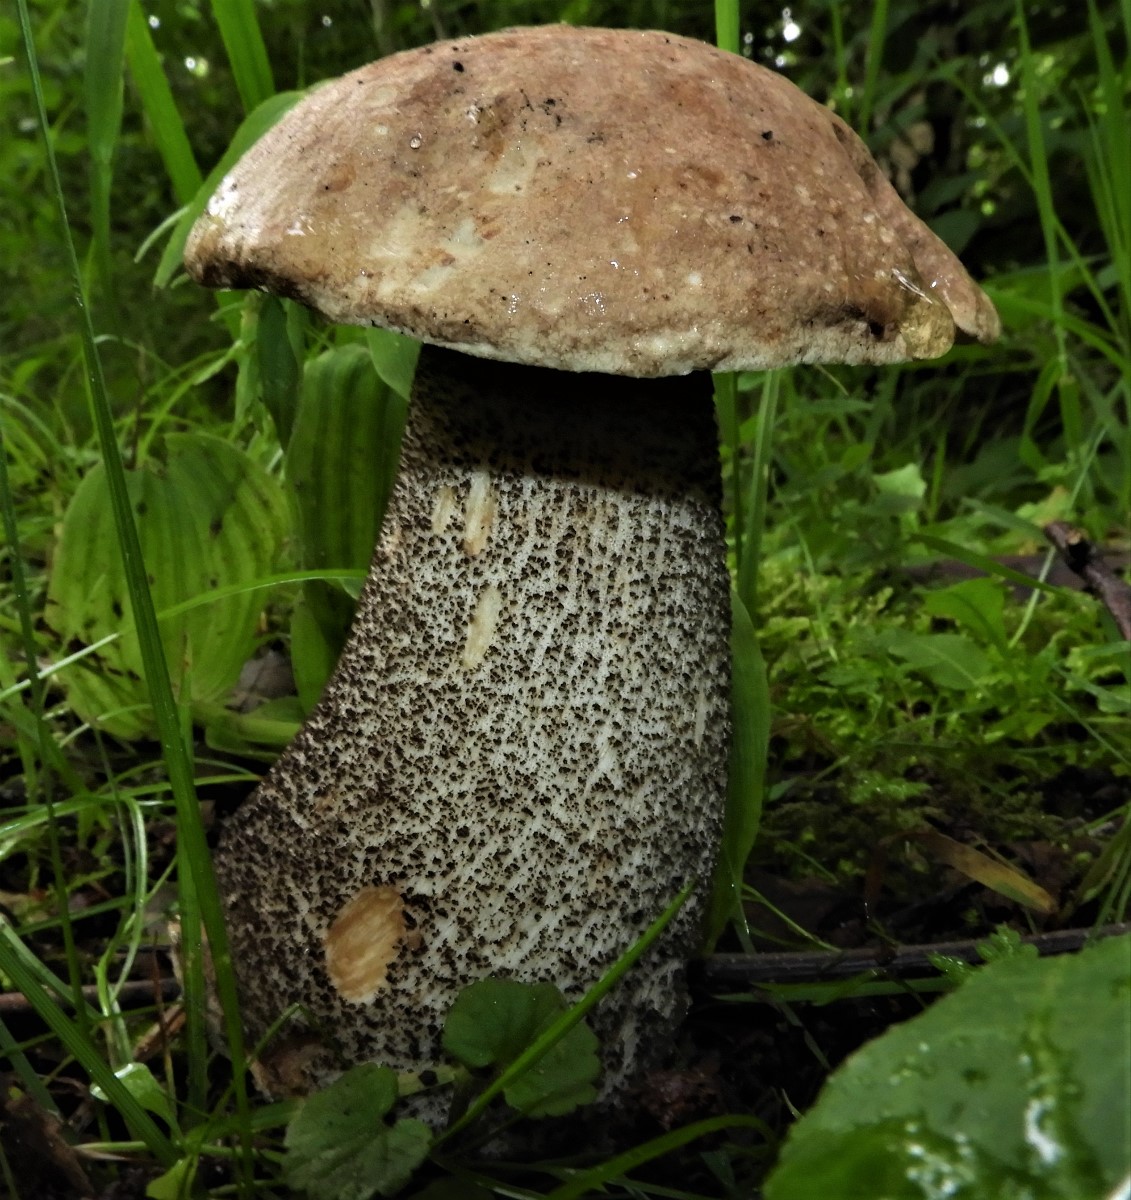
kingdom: Fungi
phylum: Basidiomycota
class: Agaricomycetes
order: Boletales
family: Boletaceae
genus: Leccinum
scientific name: Leccinum scabrum
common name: brun skælrørhat
